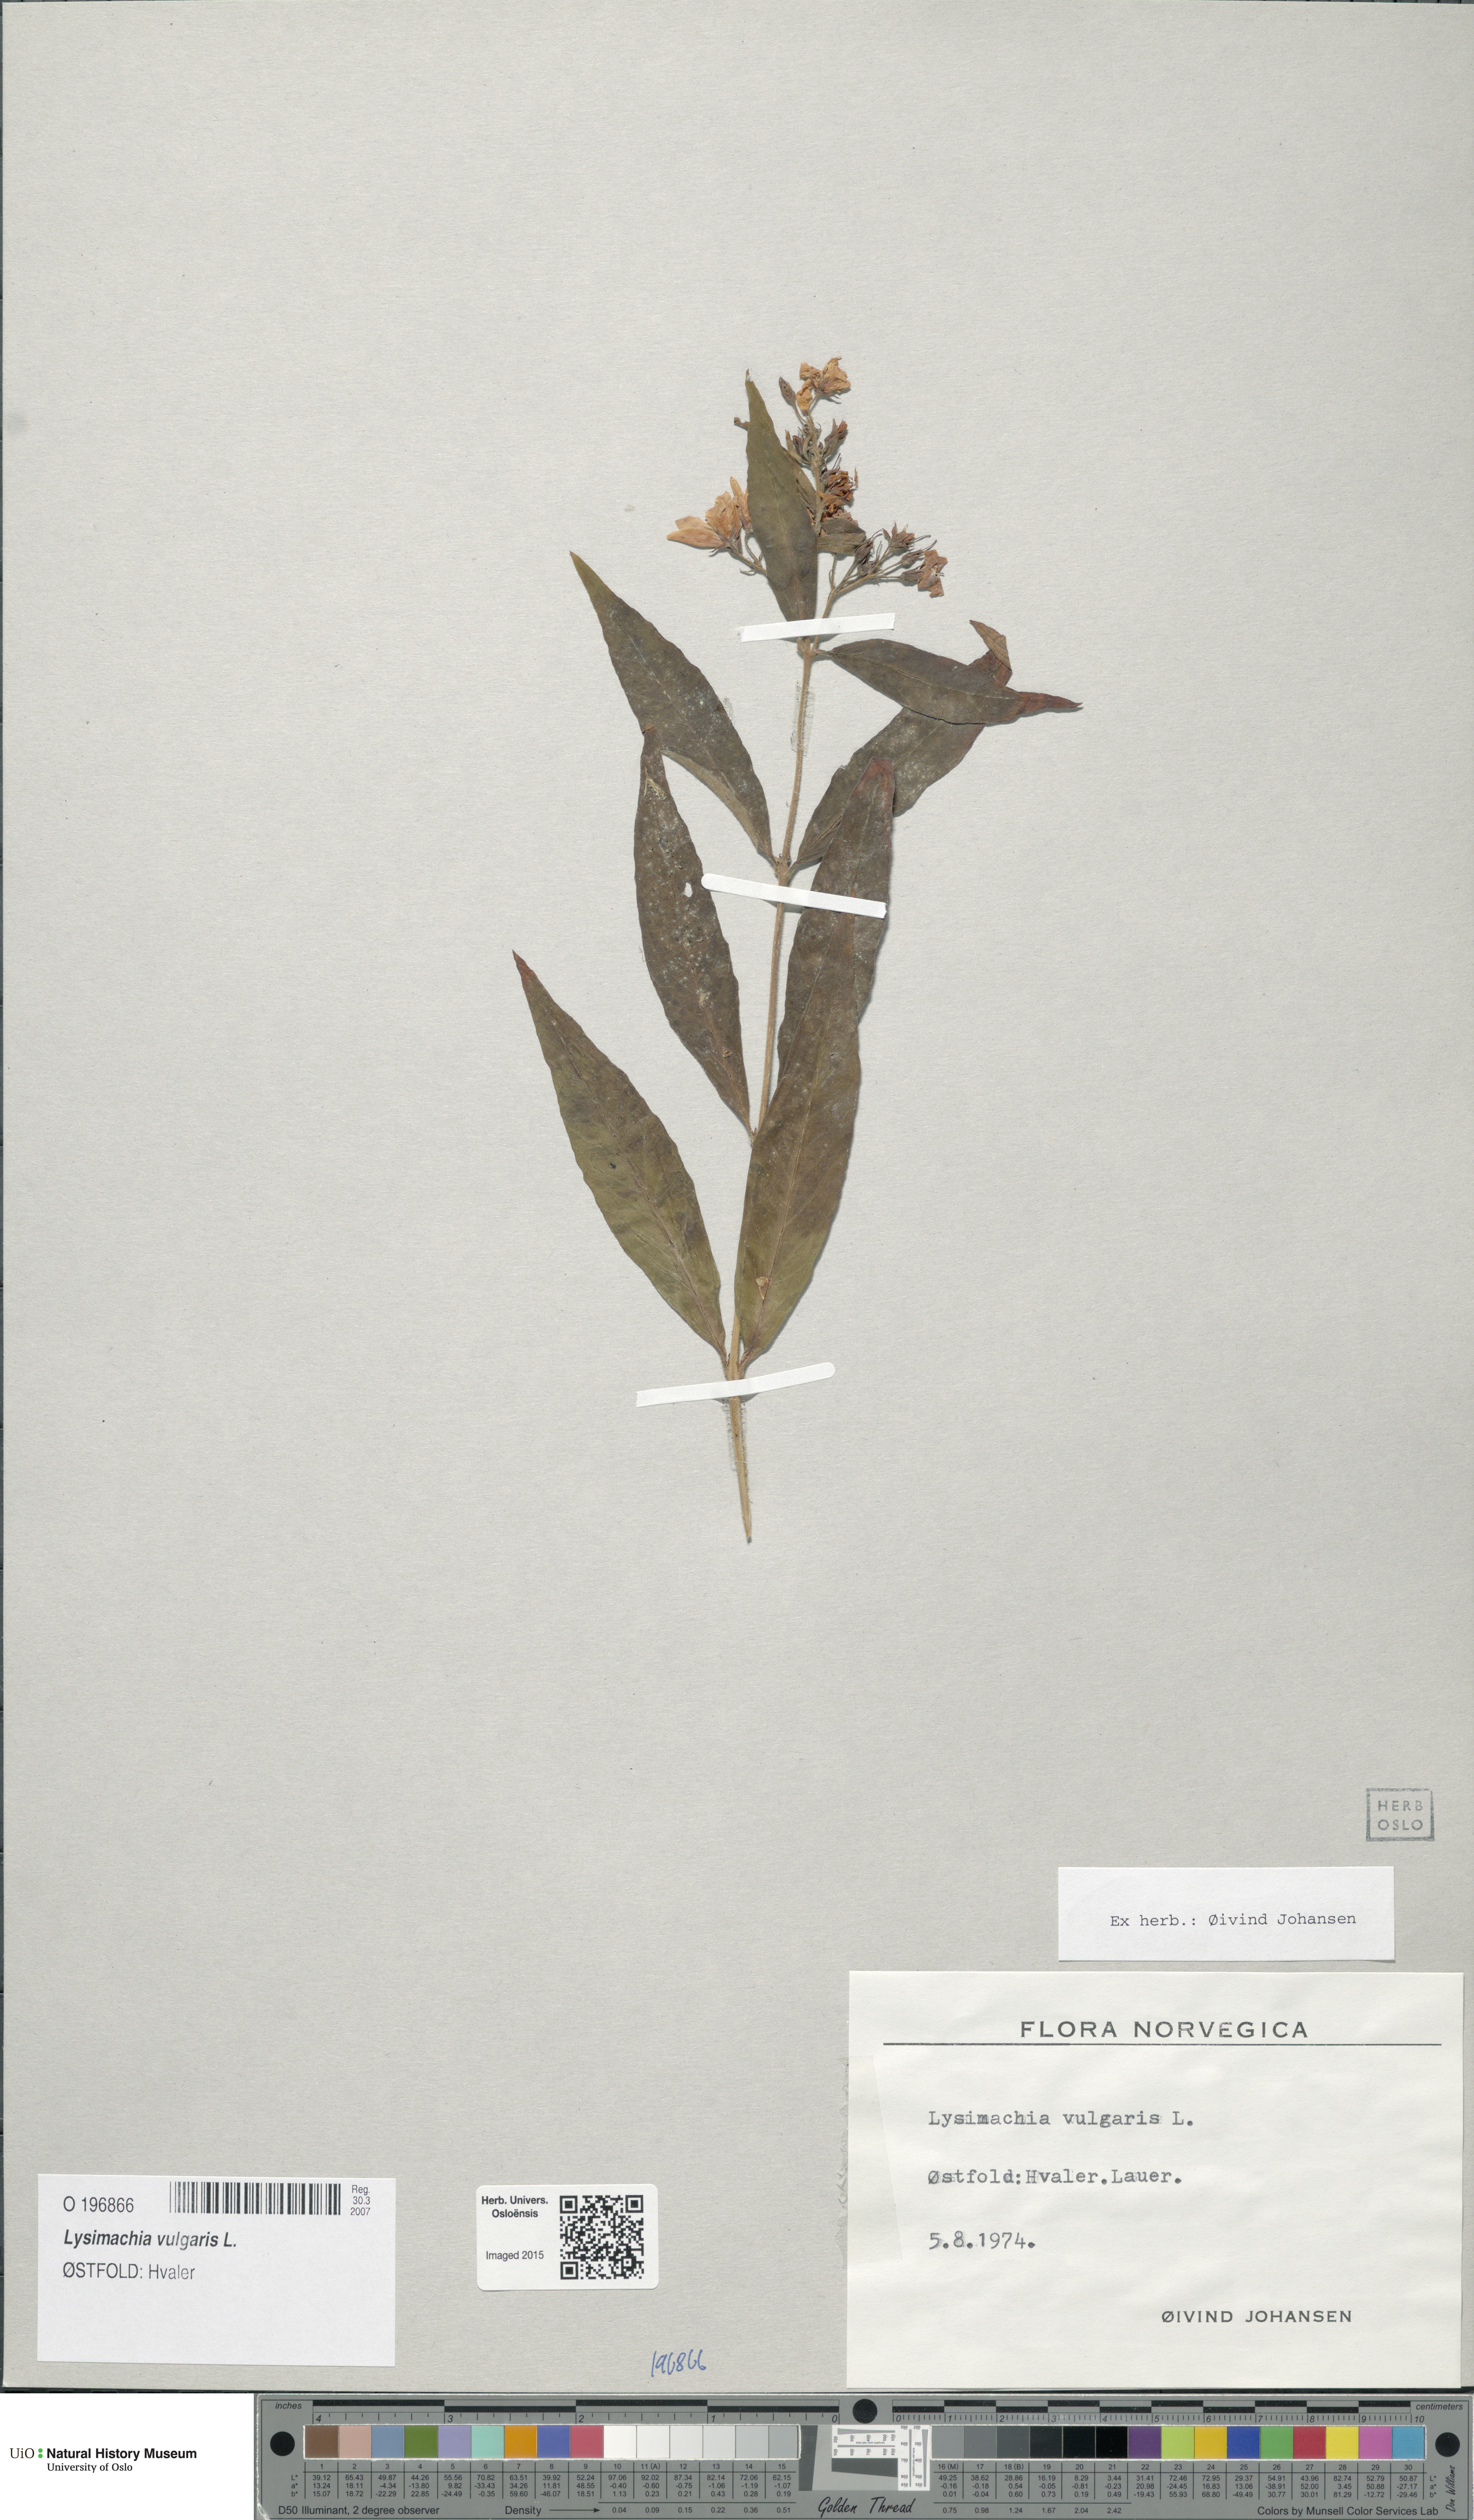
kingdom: Plantae
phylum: Tracheophyta
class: Magnoliopsida
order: Ericales
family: Primulaceae
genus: Lysimachia
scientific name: Lysimachia vulgaris
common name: Yellow loosestrife
